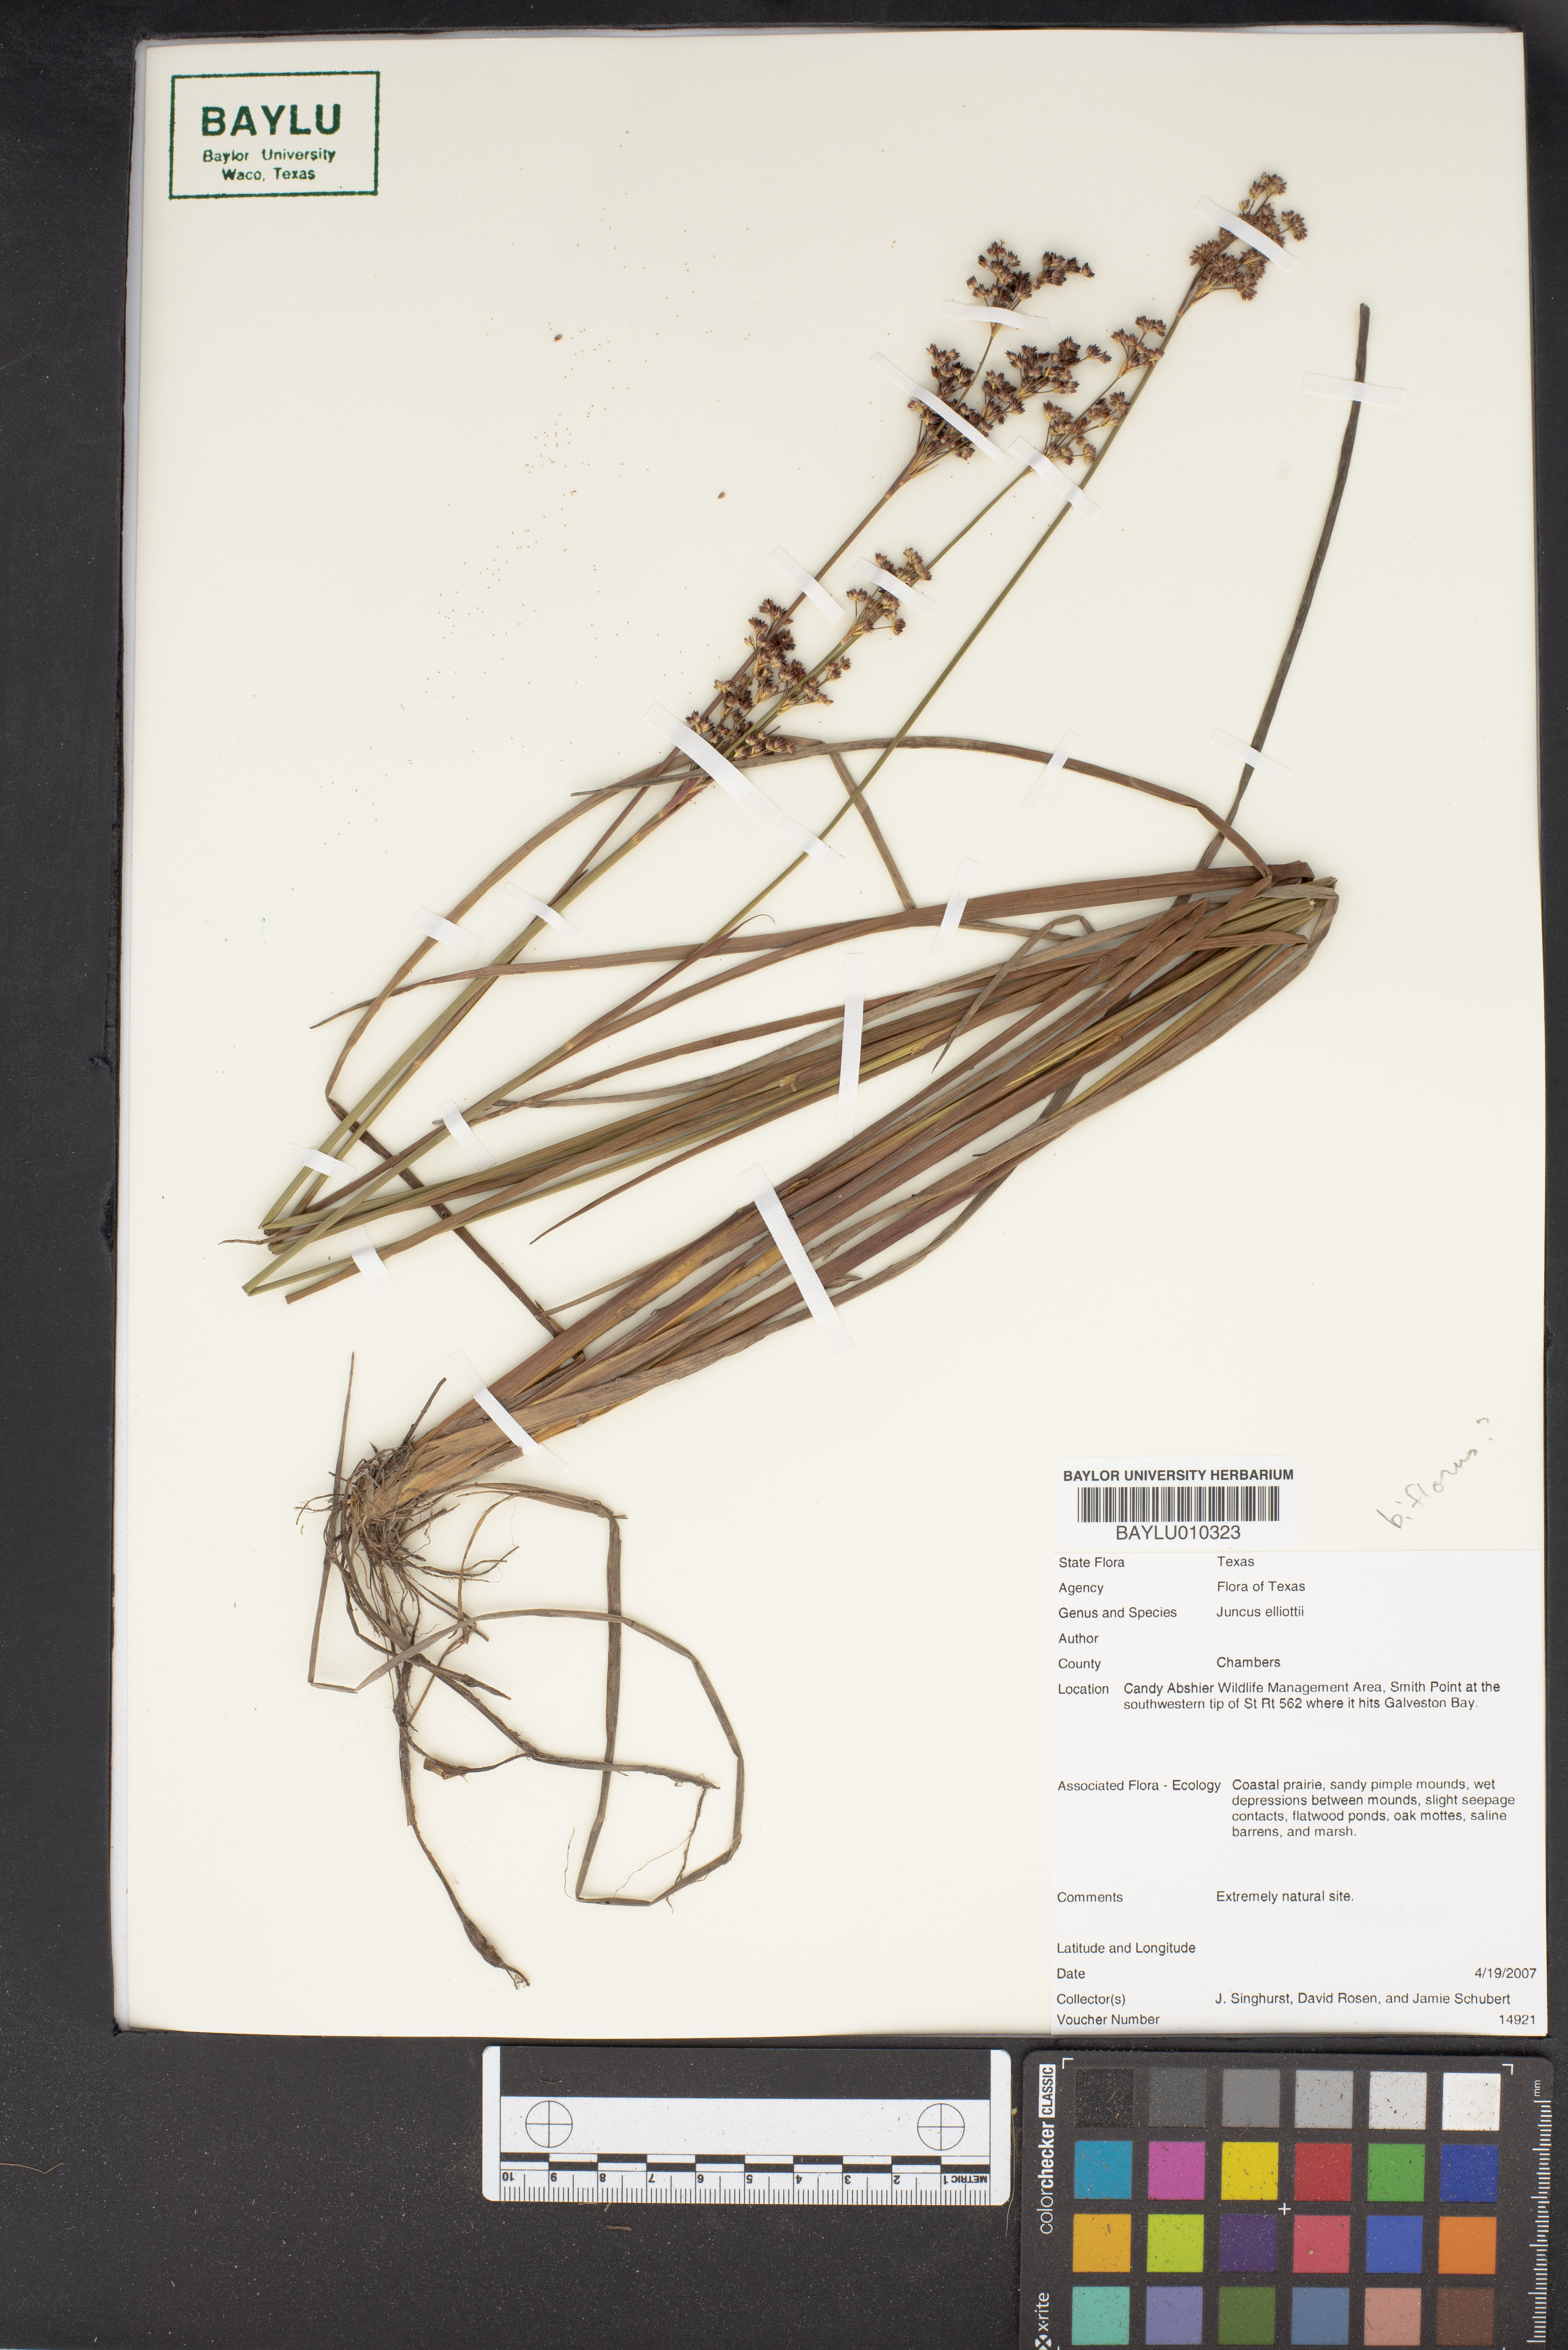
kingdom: Plantae
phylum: Tracheophyta
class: Liliopsida
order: Poales
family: Juncaceae
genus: Juncus
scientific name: Juncus elliottii
